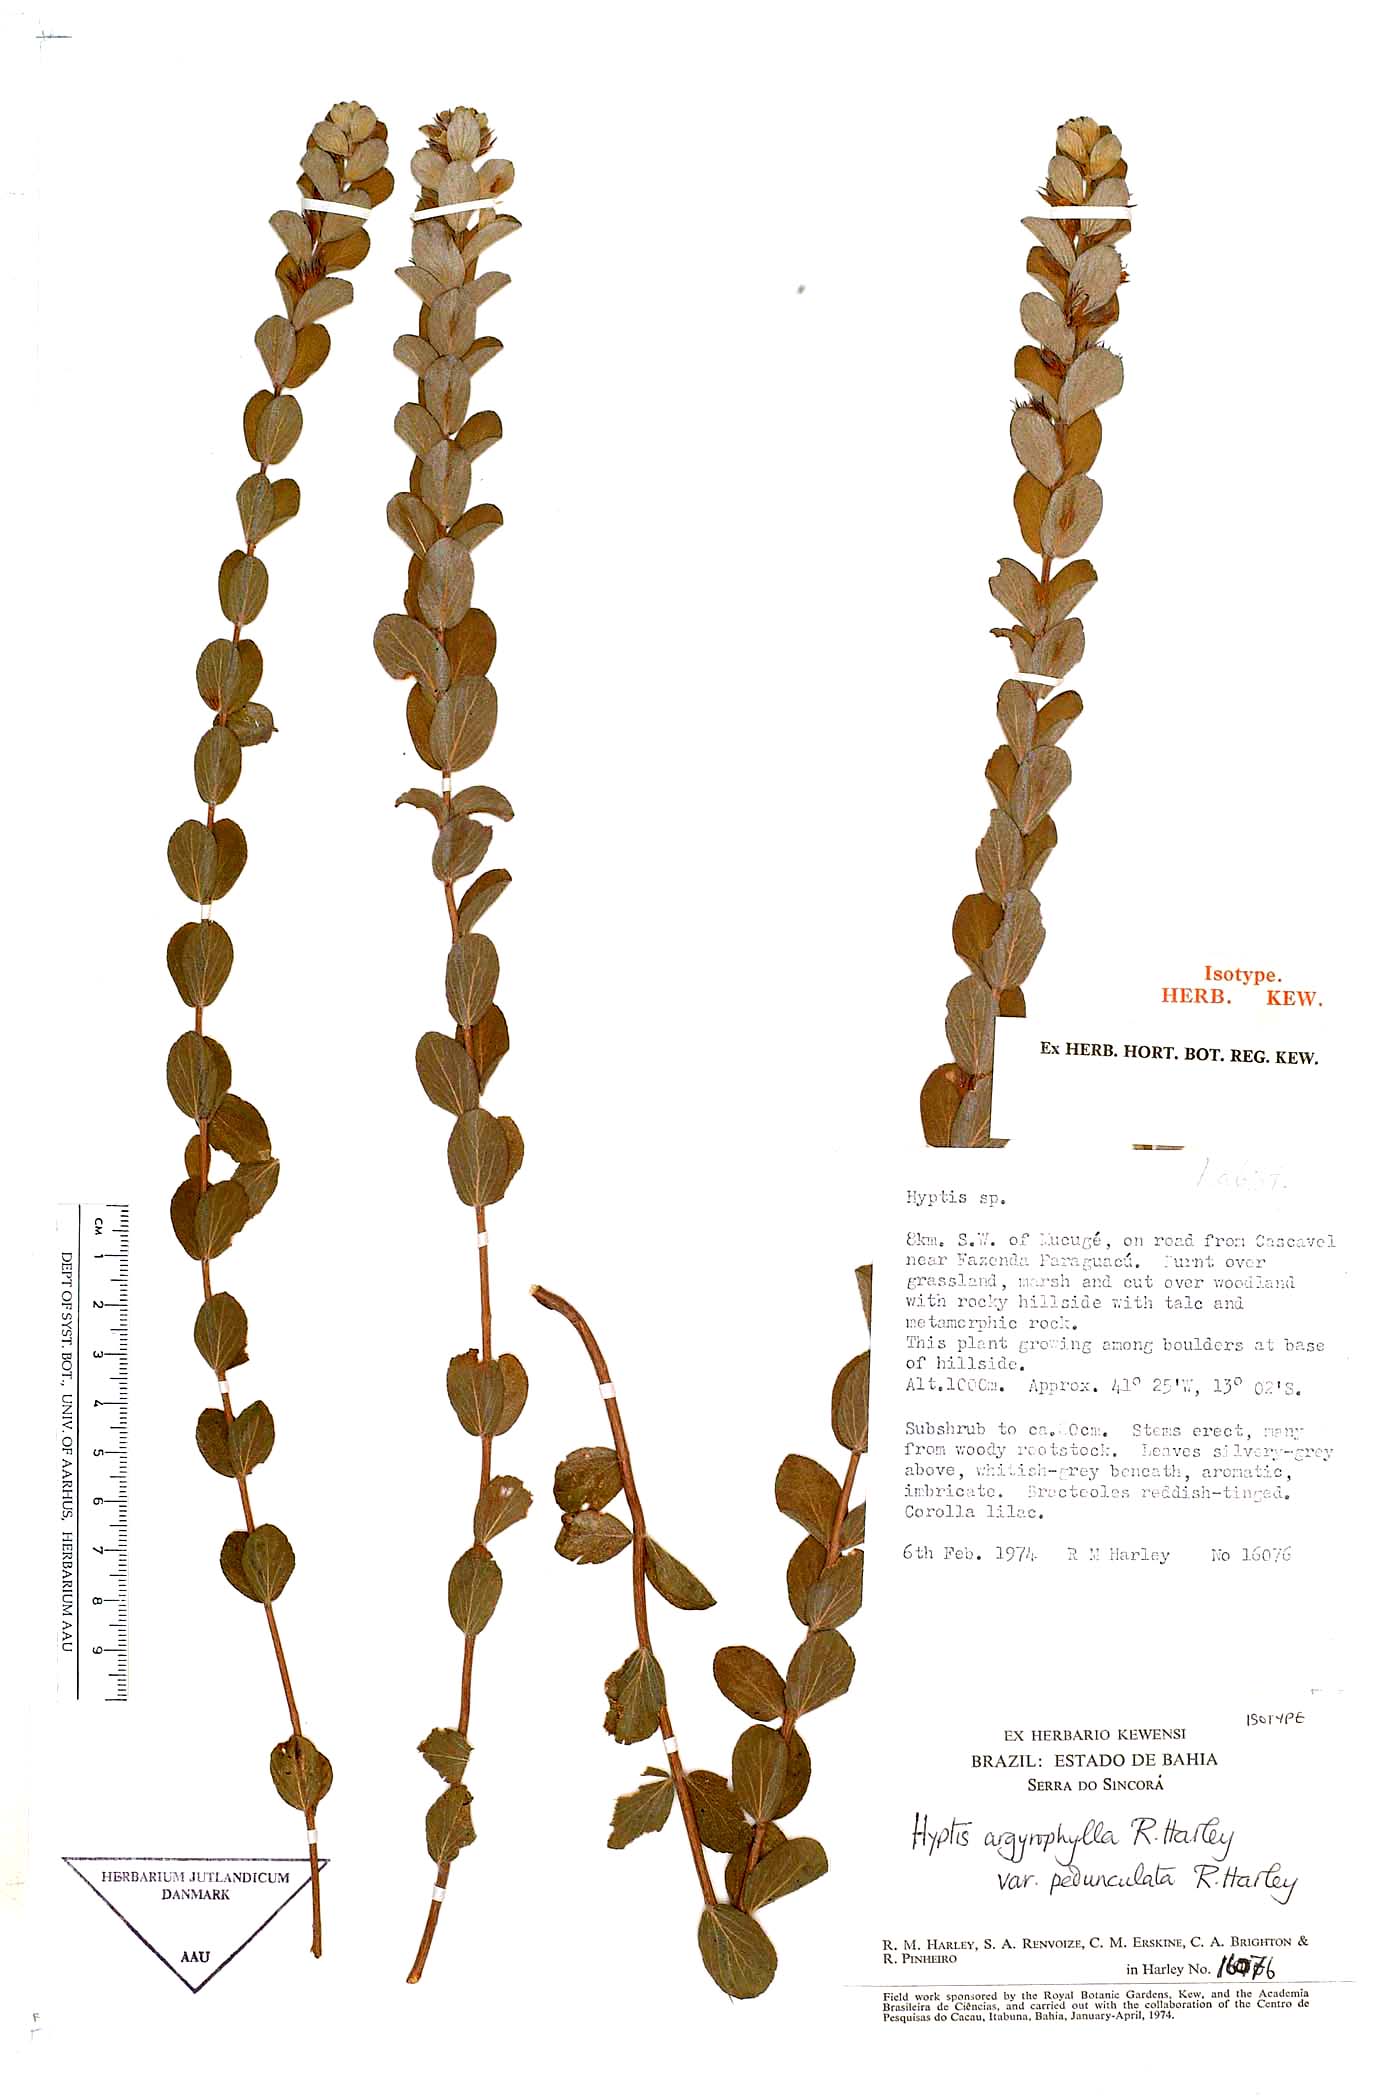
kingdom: Plantae
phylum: Tracheophyta
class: Magnoliopsida
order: Lamiales
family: Lamiaceae
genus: Oocephalus
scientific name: Oocephalus argyrophyllus
